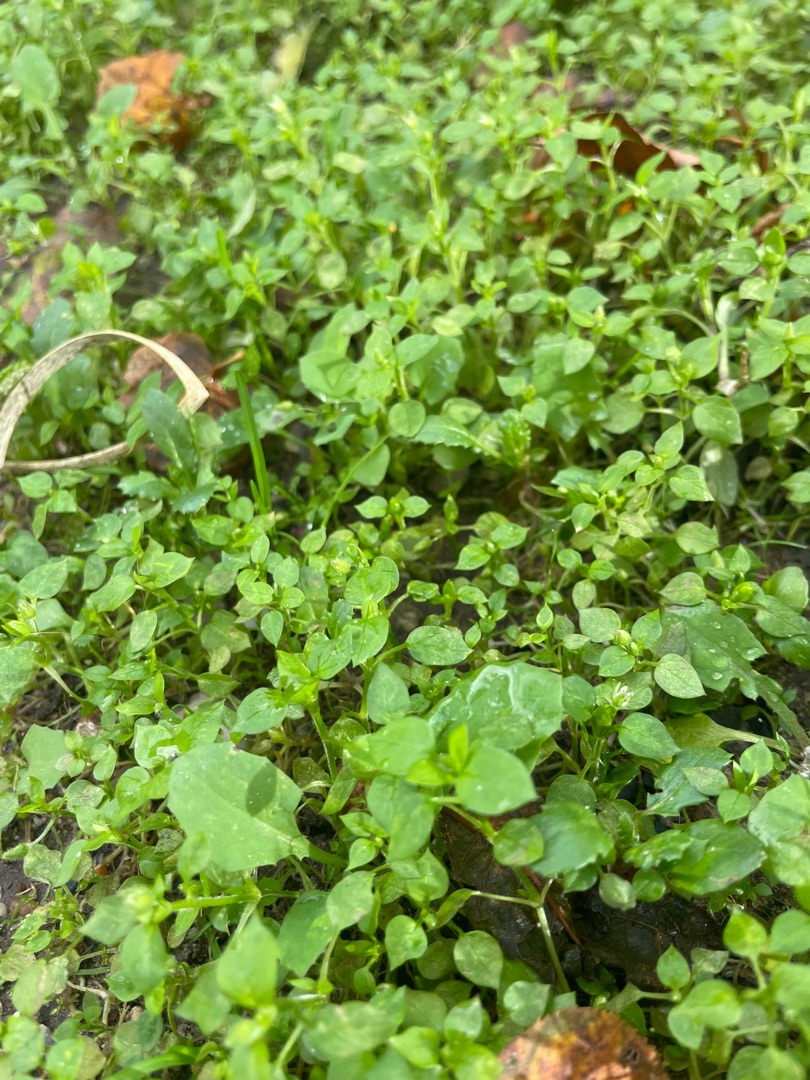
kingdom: Plantae
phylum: Tracheophyta
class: Magnoliopsida
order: Caryophyllales
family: Caryophyllaceae
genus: Stellaria
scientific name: Stellaria media
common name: Almindelig fuglegræs
